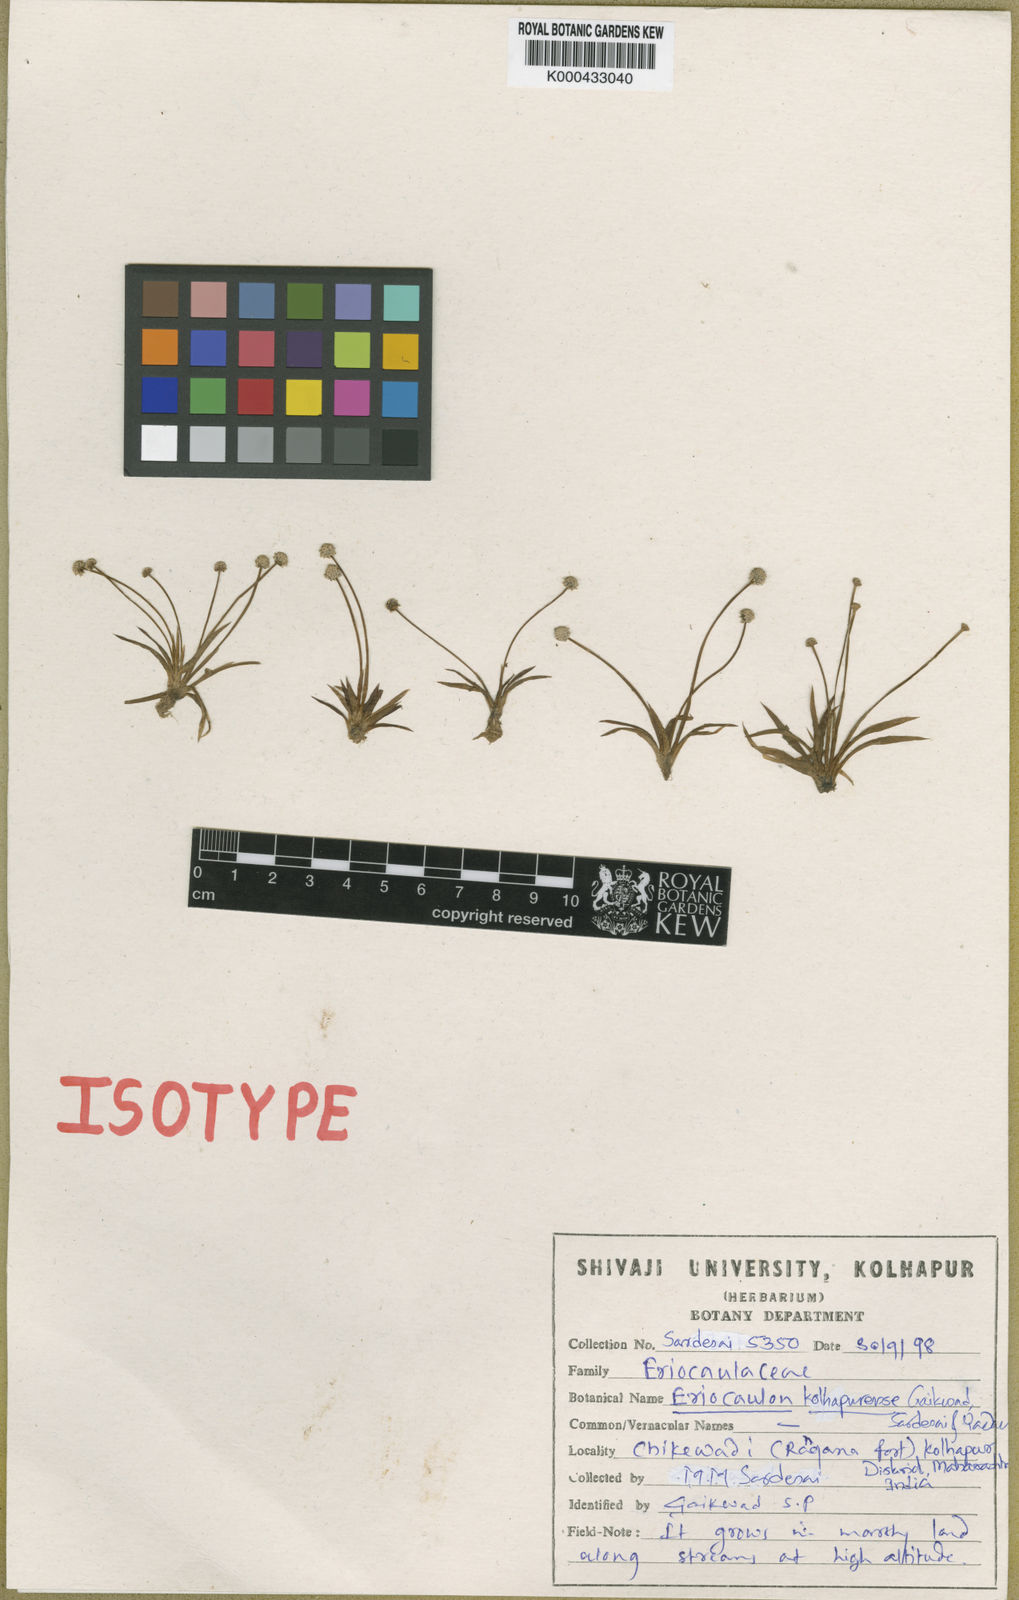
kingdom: Plantae
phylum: Tracheophyta
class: Liliopsida
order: Poales
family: Eriocaulaceae
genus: Eriocaulon
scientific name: Eriocaulon kolhapurense
